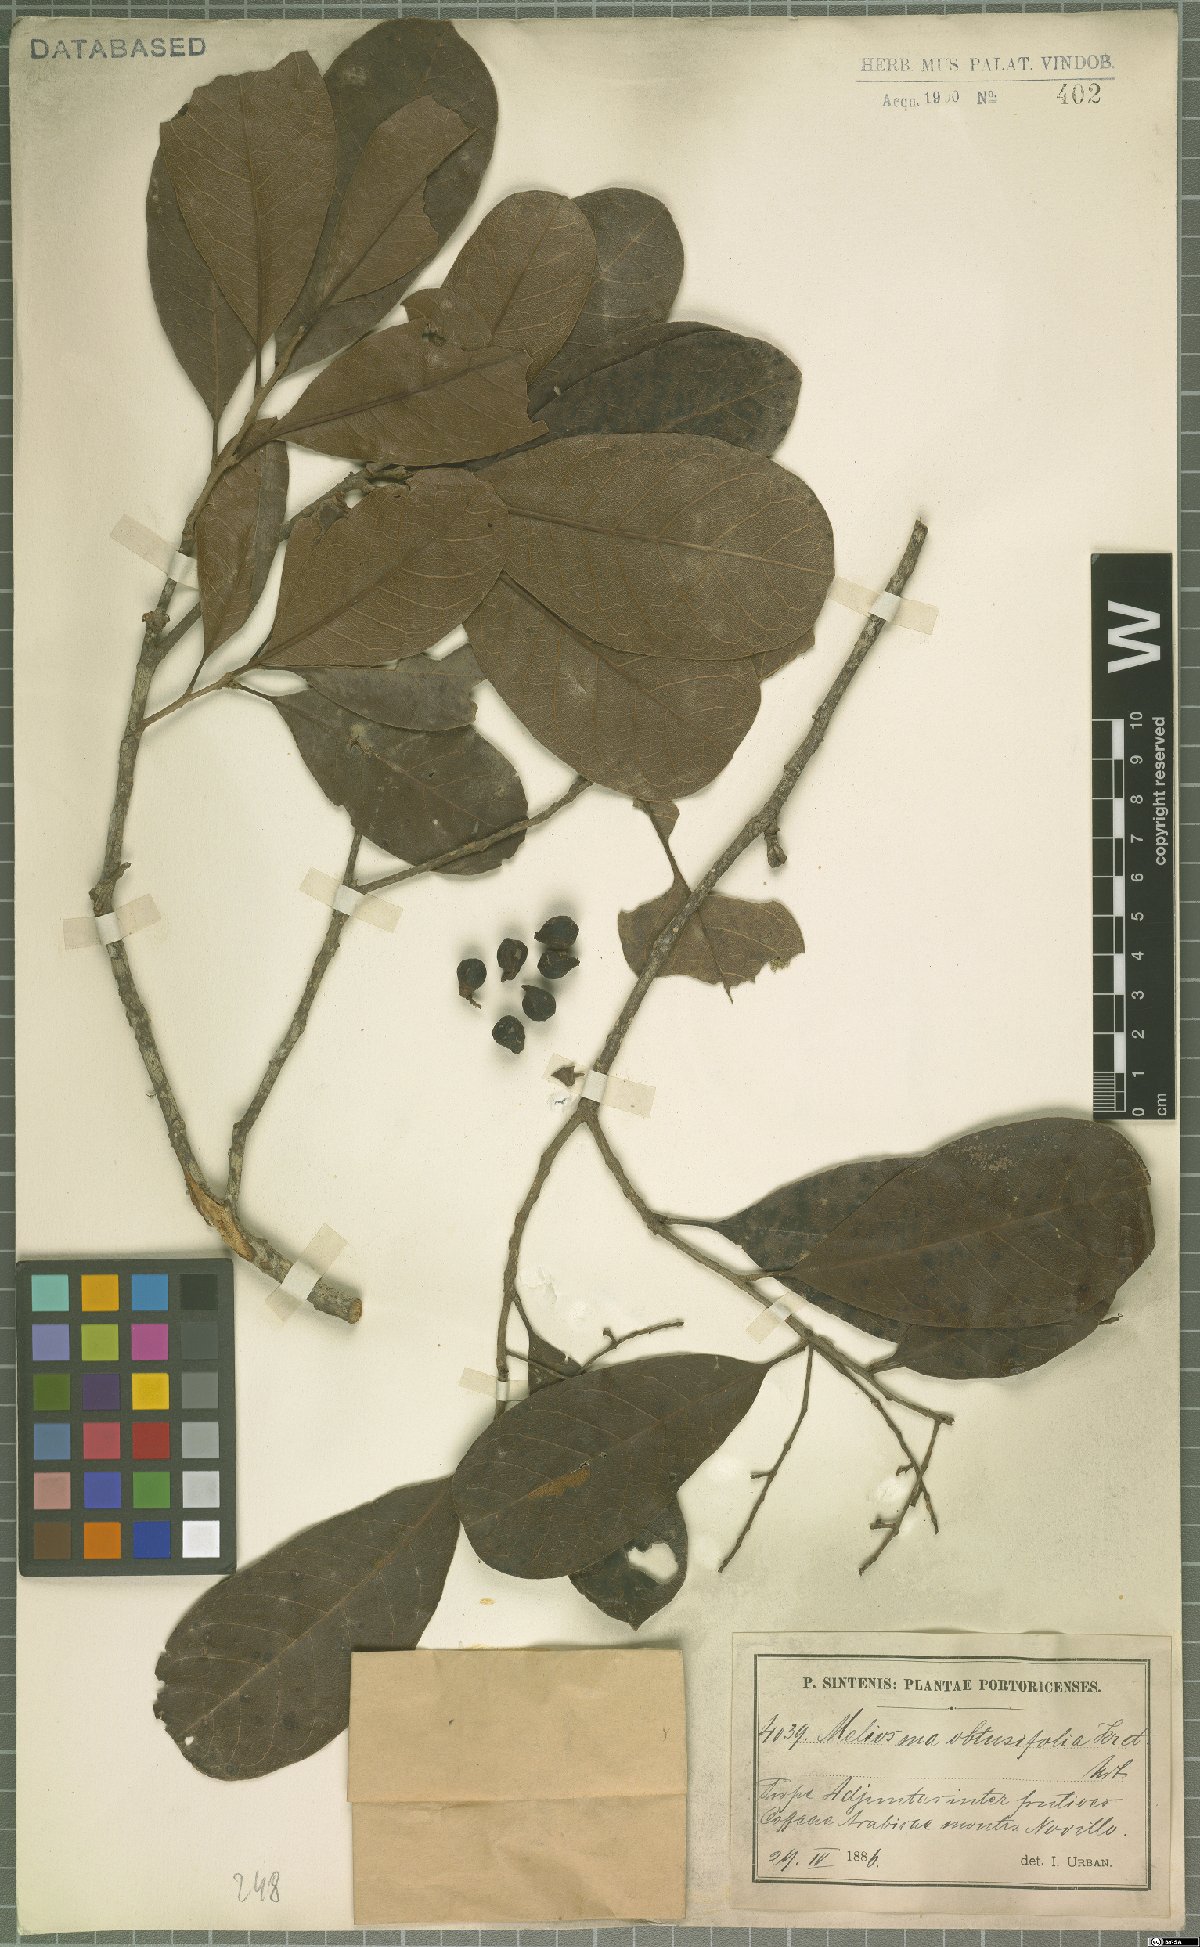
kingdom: Plantae
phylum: Tracheophyta
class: Magnoliopsida
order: Proteales
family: Sabiaceae
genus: Meliosma
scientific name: Meliosma obtusifolia
